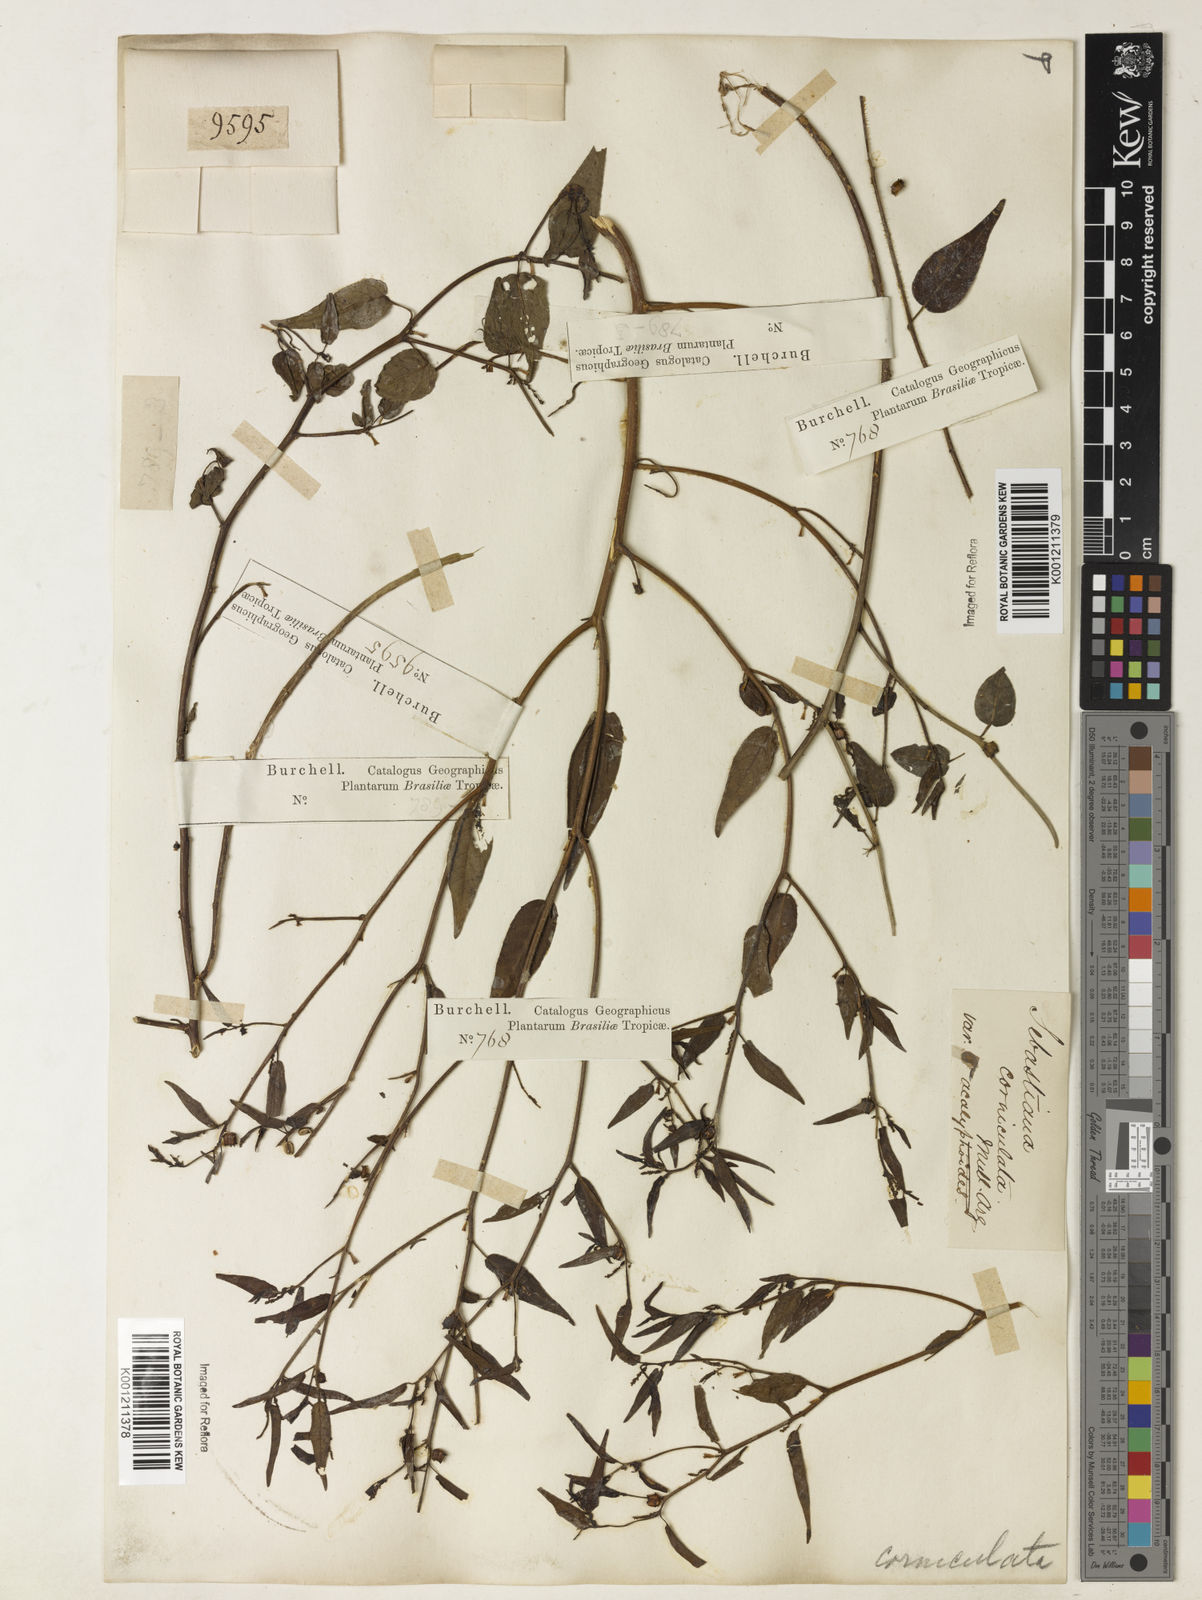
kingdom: Plantae
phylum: Tracheophyta
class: Magnoliopsida
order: Malpighiales
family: Euphorbiaceae
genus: Microstachys
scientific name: Microstachys corniculata
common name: Hato tejas
